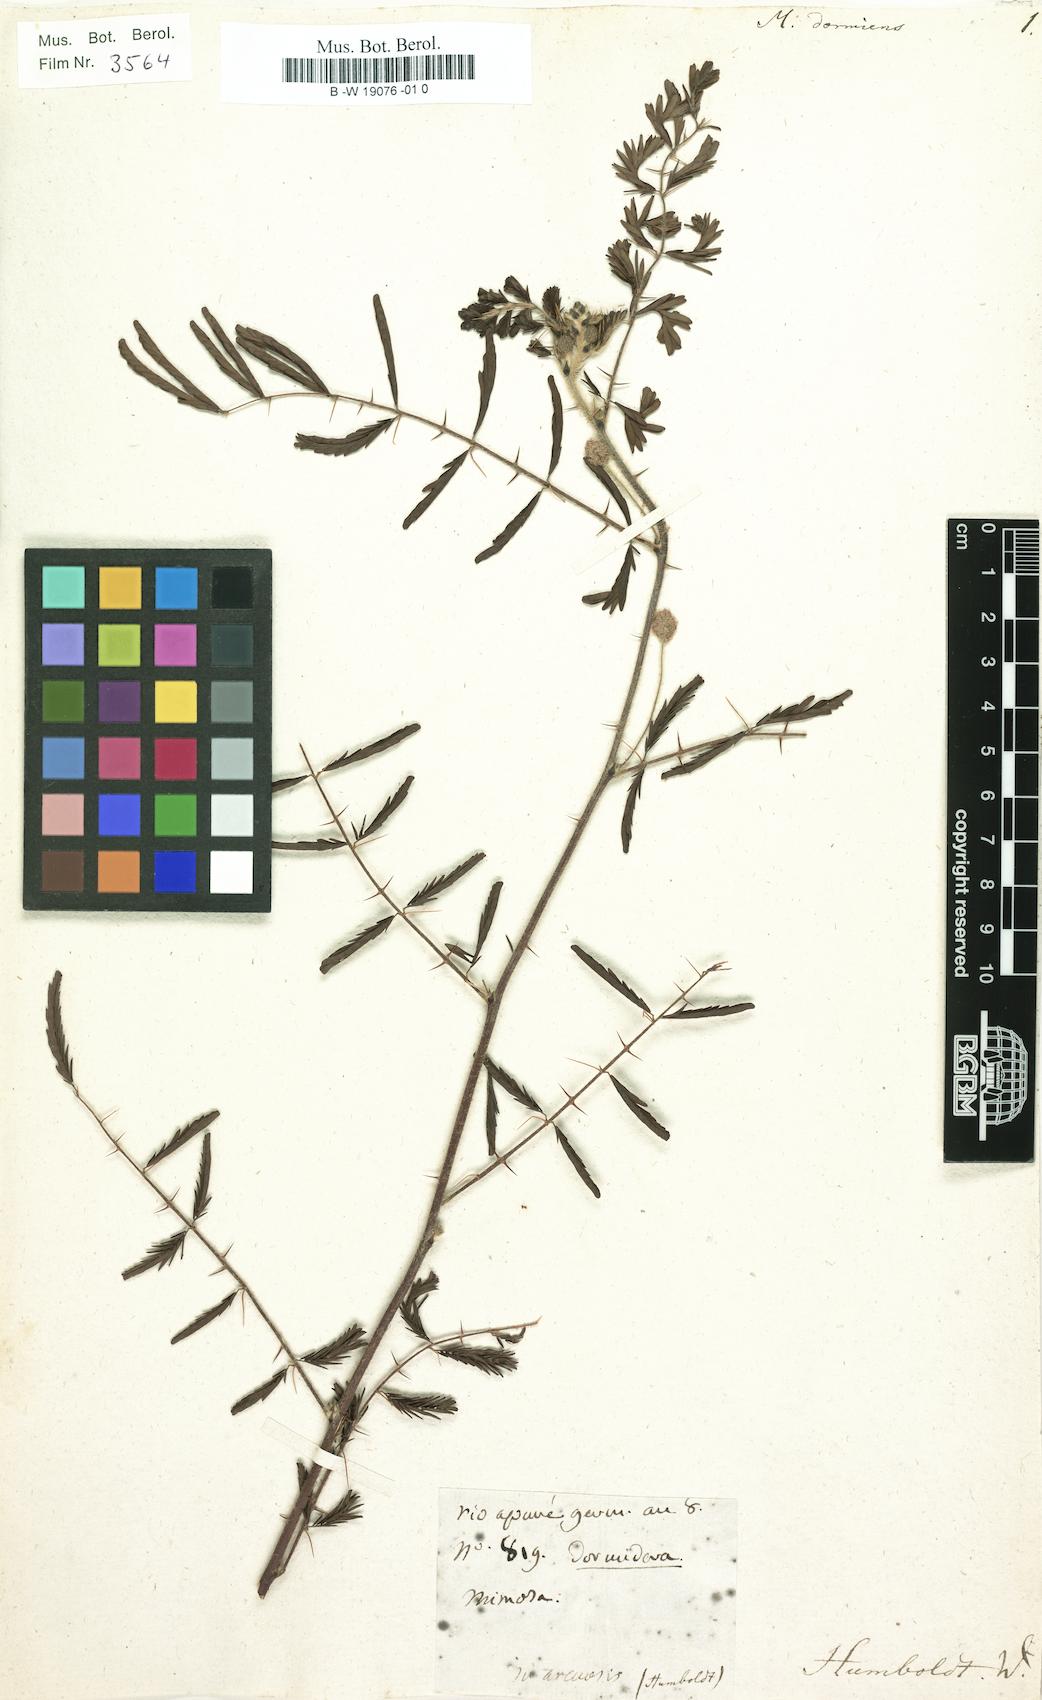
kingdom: Plantae
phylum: Tracheophyta
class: Magnoliopsida
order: Fabales
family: Fabaceae
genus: Mimosa
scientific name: Mimosa dormiens
